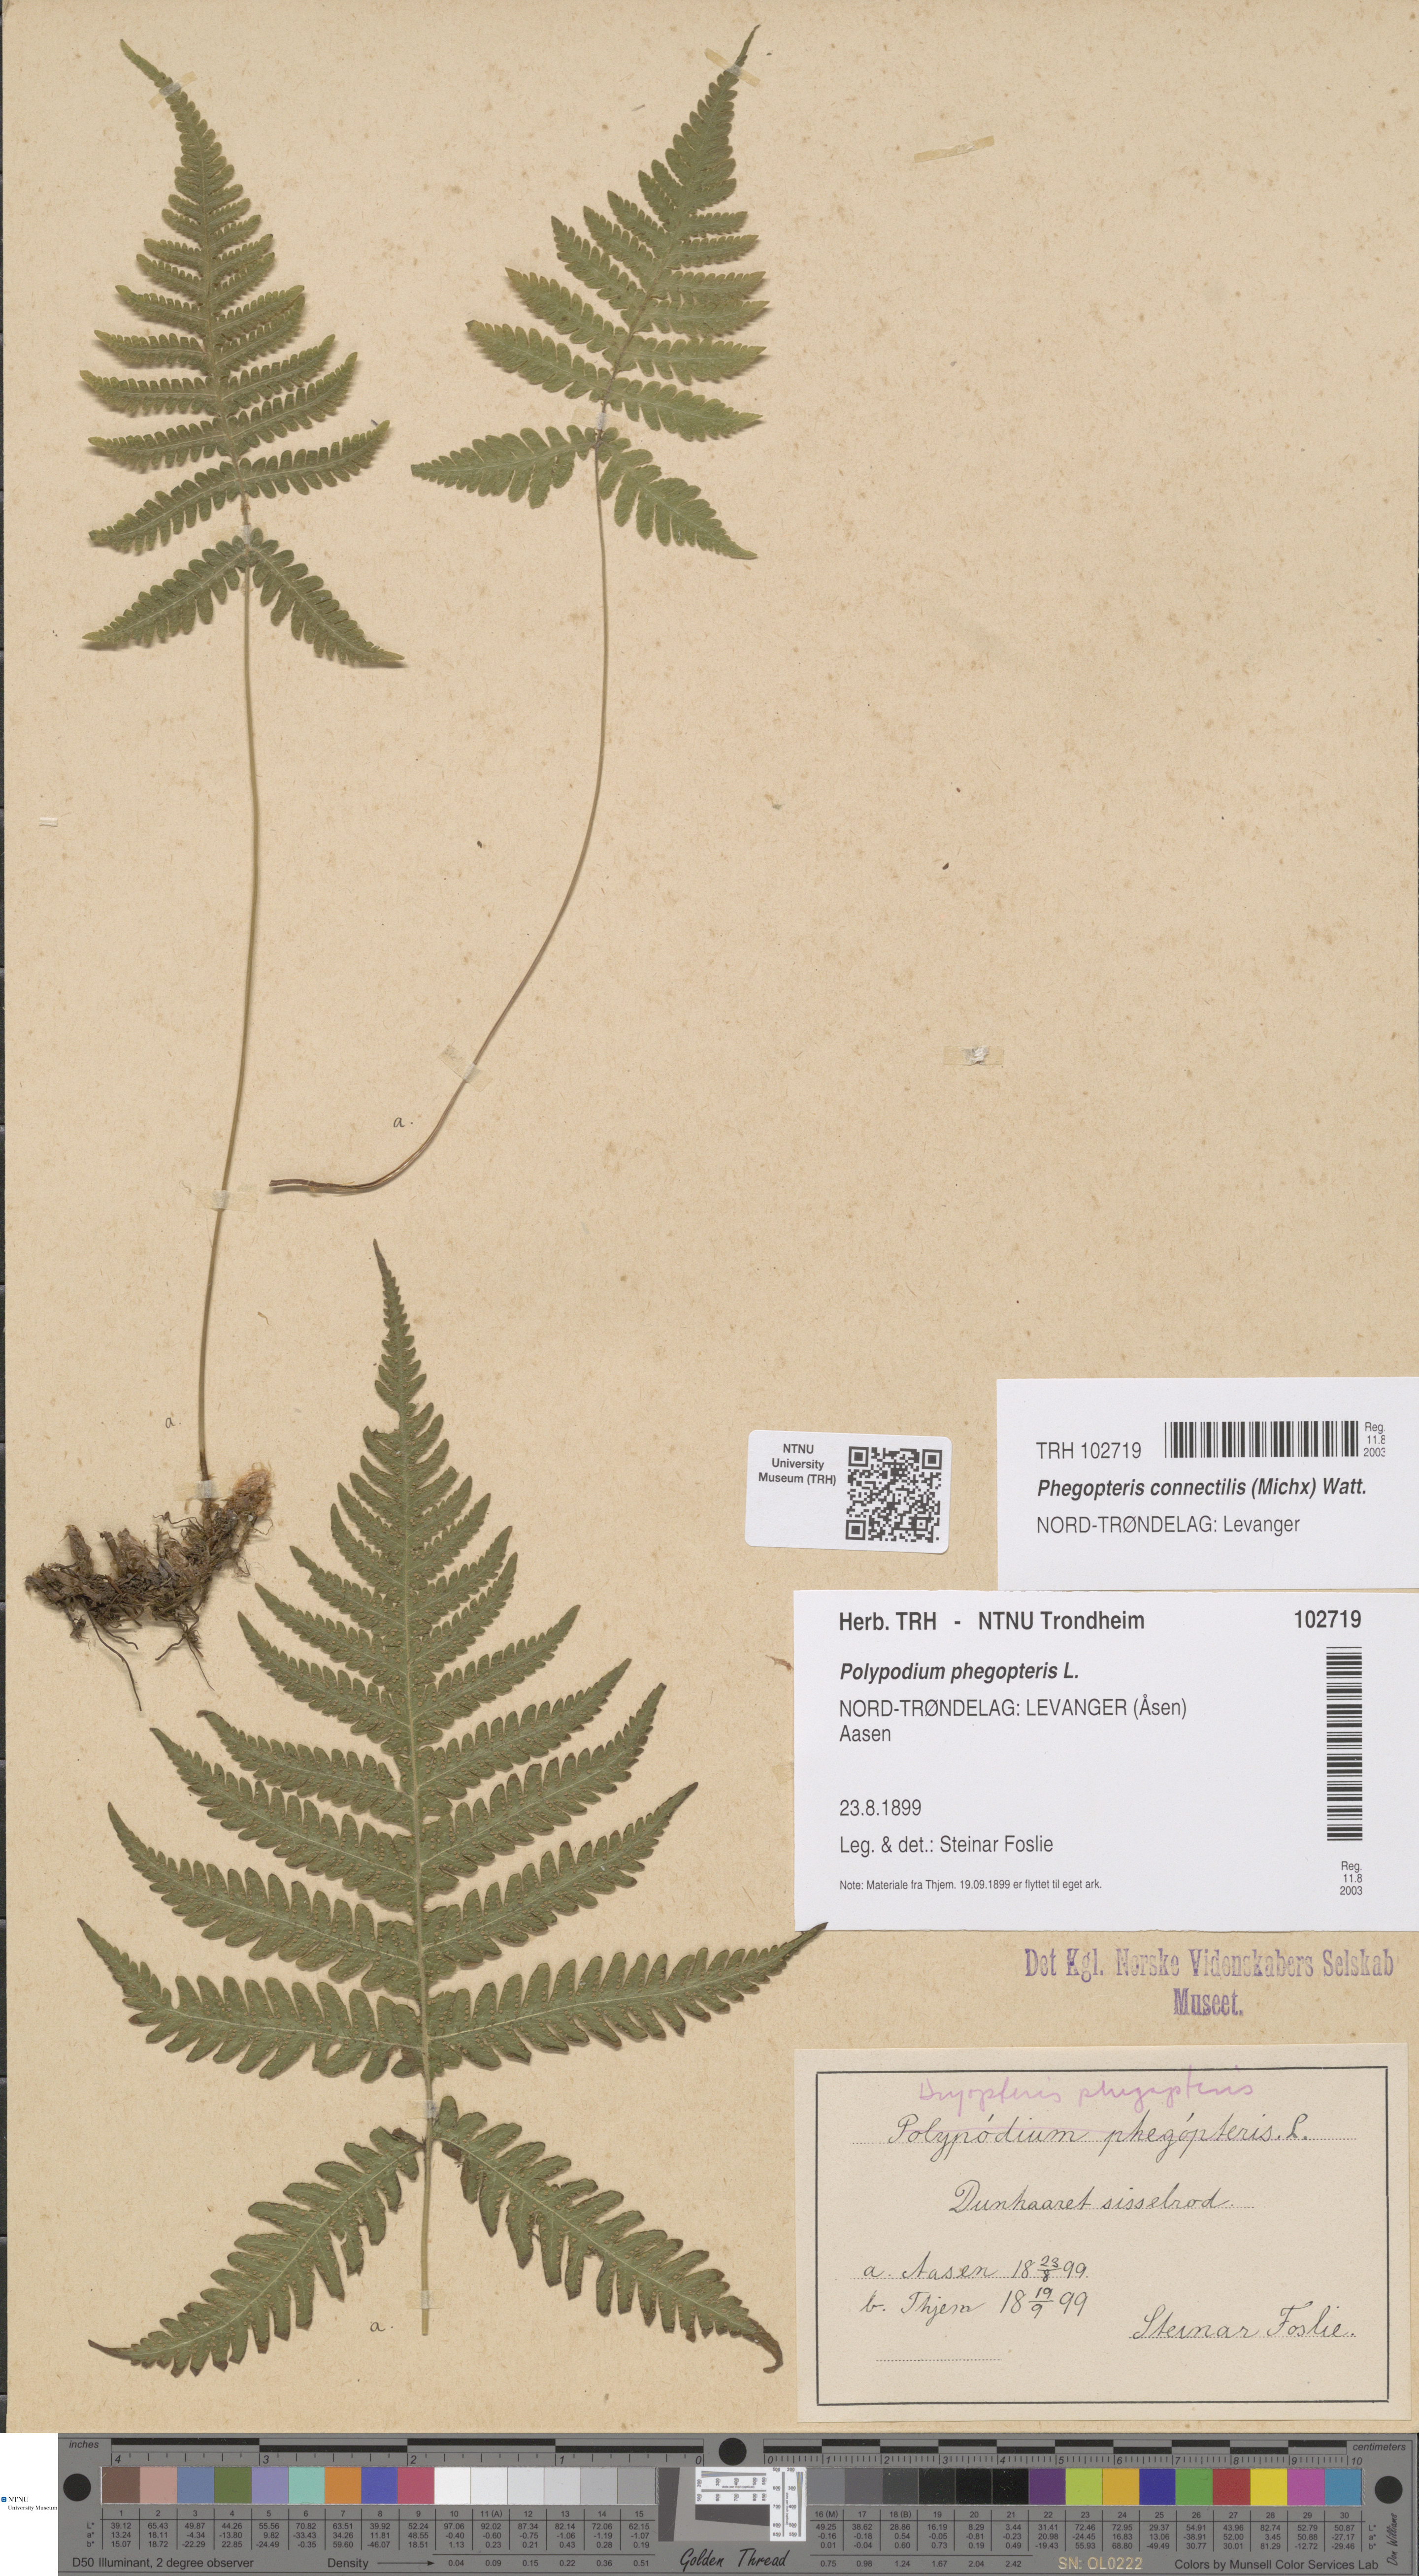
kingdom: Plantae
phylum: Tracheophyta
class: Polypodiopsida
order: Polypodiales
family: Thelypteridaceae
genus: Phegopteris
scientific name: Phegopteris connectilis
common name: Beech fern
